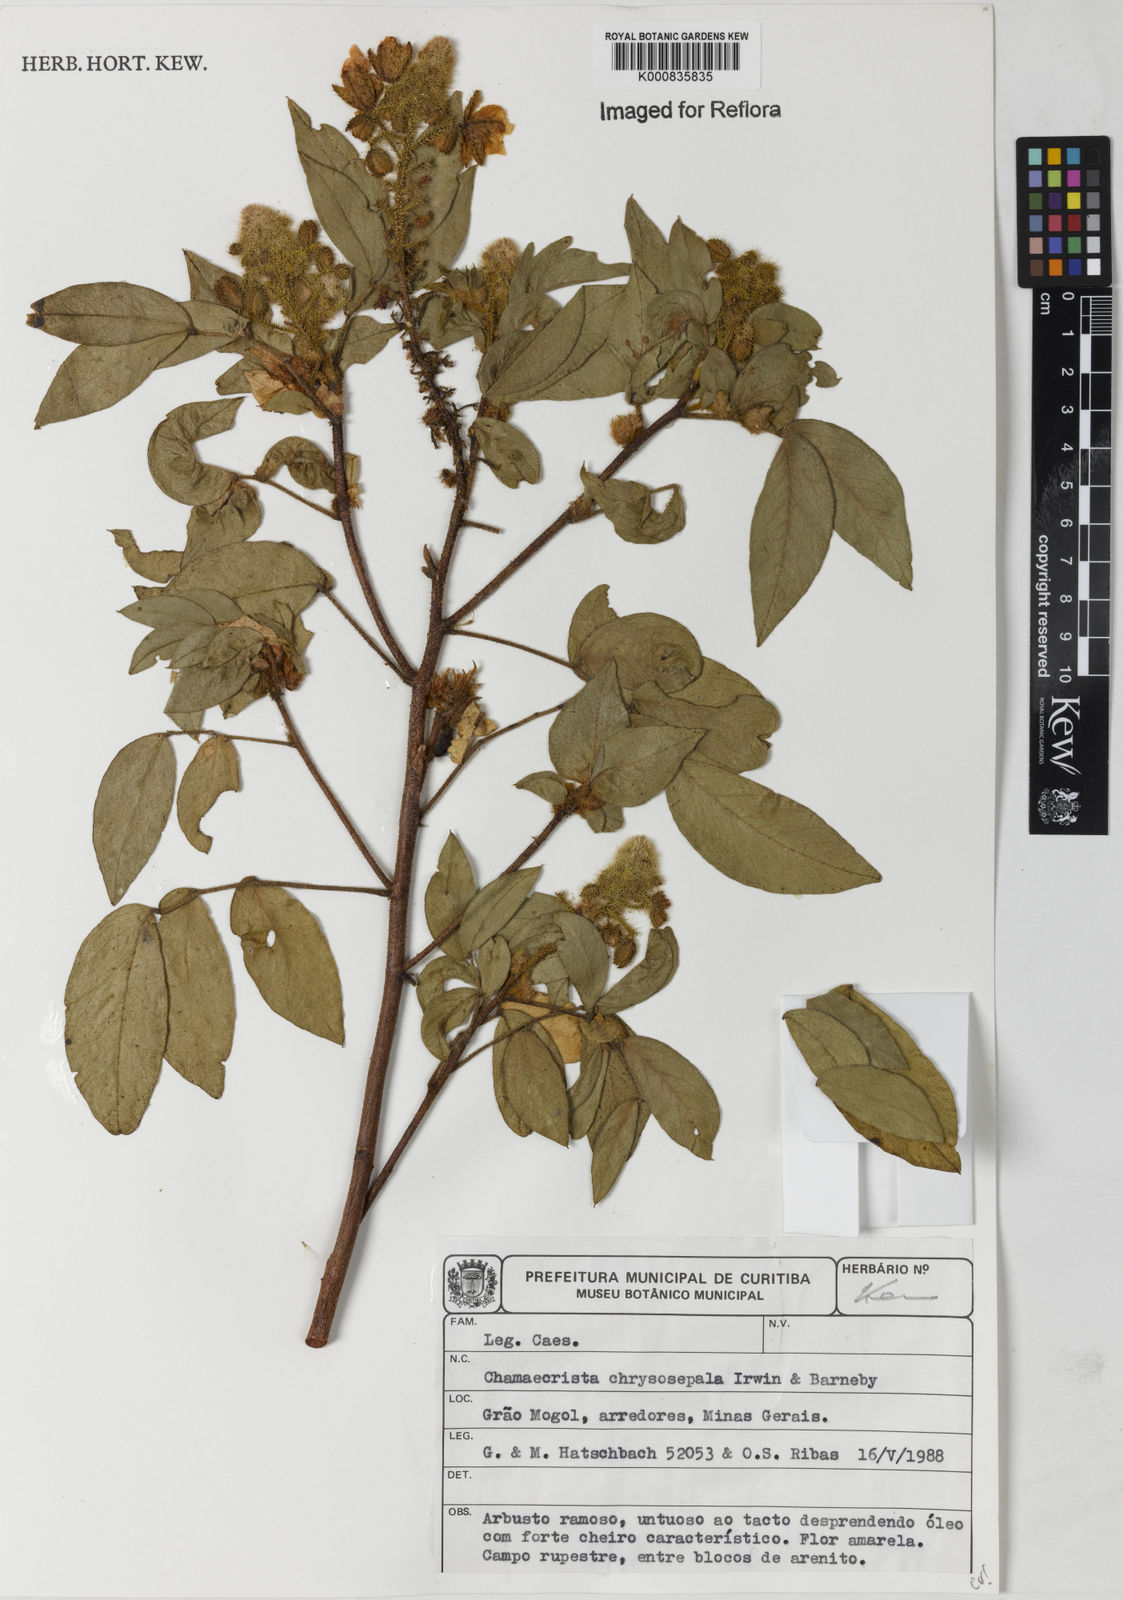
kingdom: Plantae
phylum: Tracheophyta
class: Magnoliopsida
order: Fabales
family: Fabaceae
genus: Chamaecrista
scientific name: Chamaecrista chrysosepala
